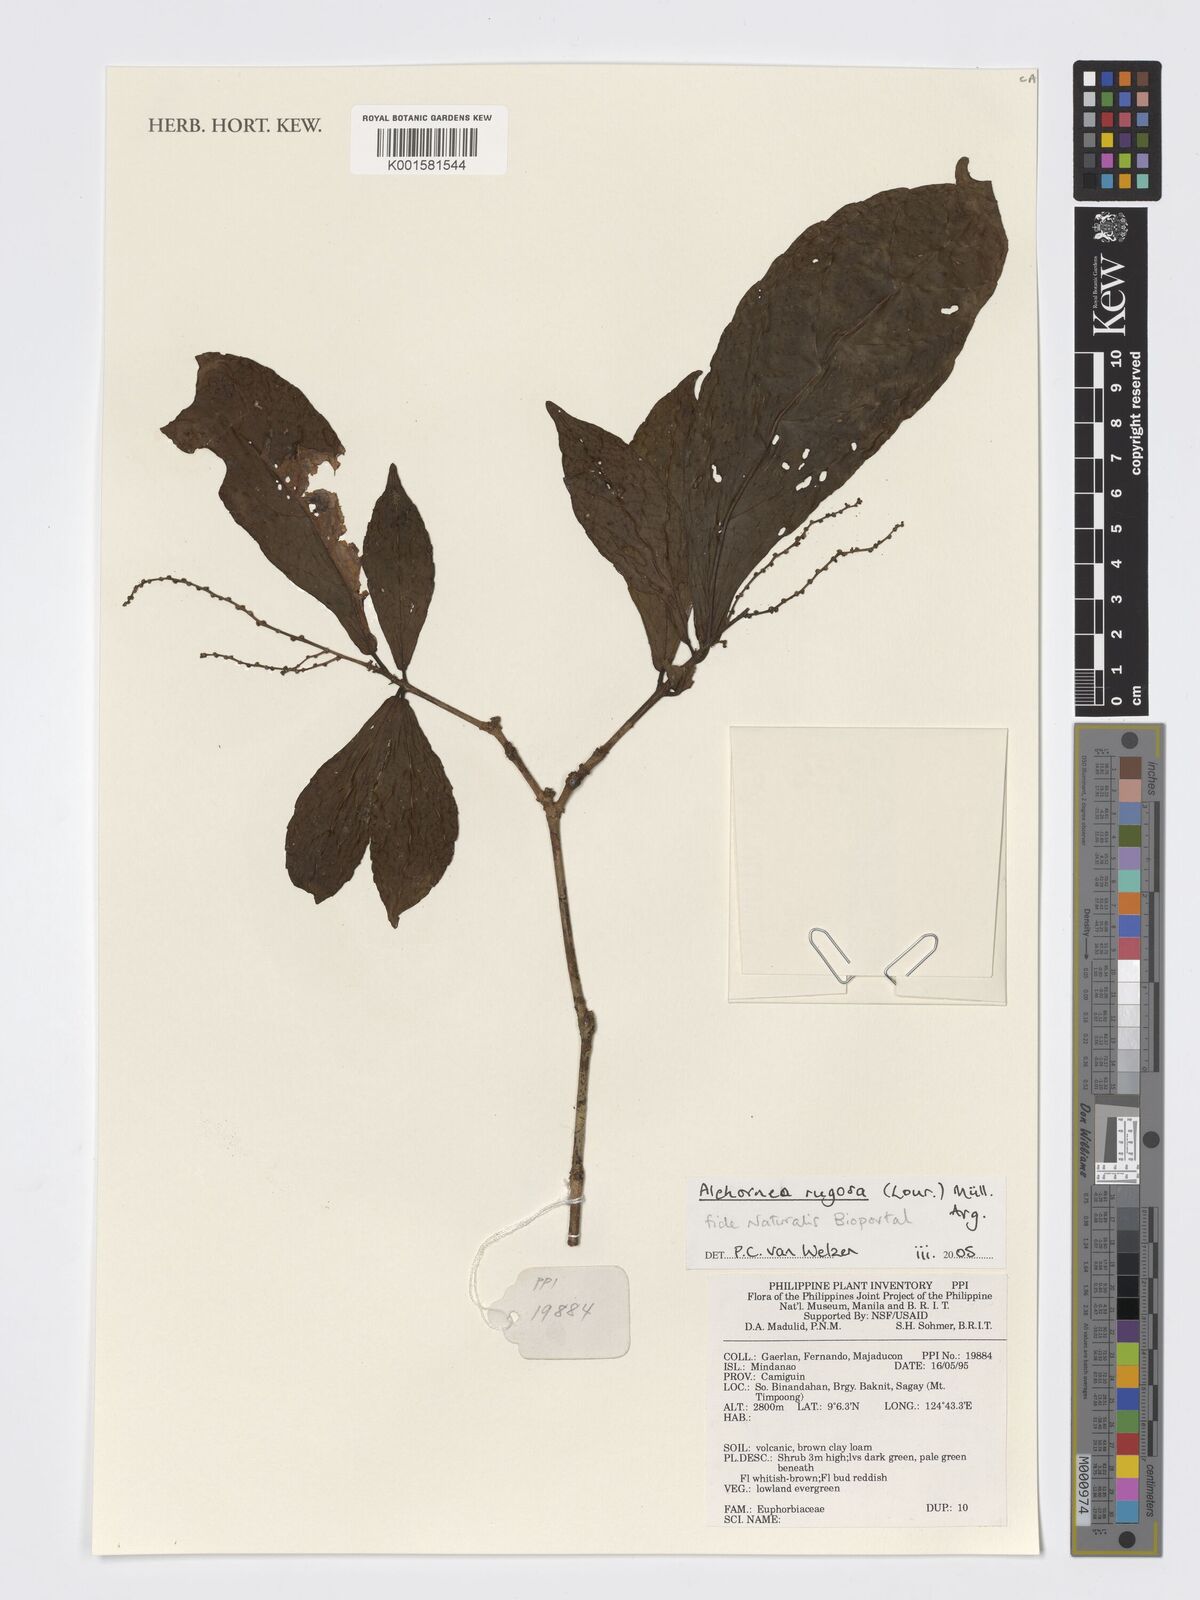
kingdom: Plantae
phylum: Tracheophyta
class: Magnoliopsida
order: Malpighiales
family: Euphorbiaceae
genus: Alchornea
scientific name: Alchornea rugosa
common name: Alchorntree
